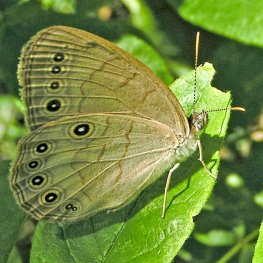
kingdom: Animalia
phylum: Arthropoda
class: Insecta
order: Lepidoptera
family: Nymphalidae
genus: Lethe
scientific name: Lethe eurydice
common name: Appalachian Eyed Brown
